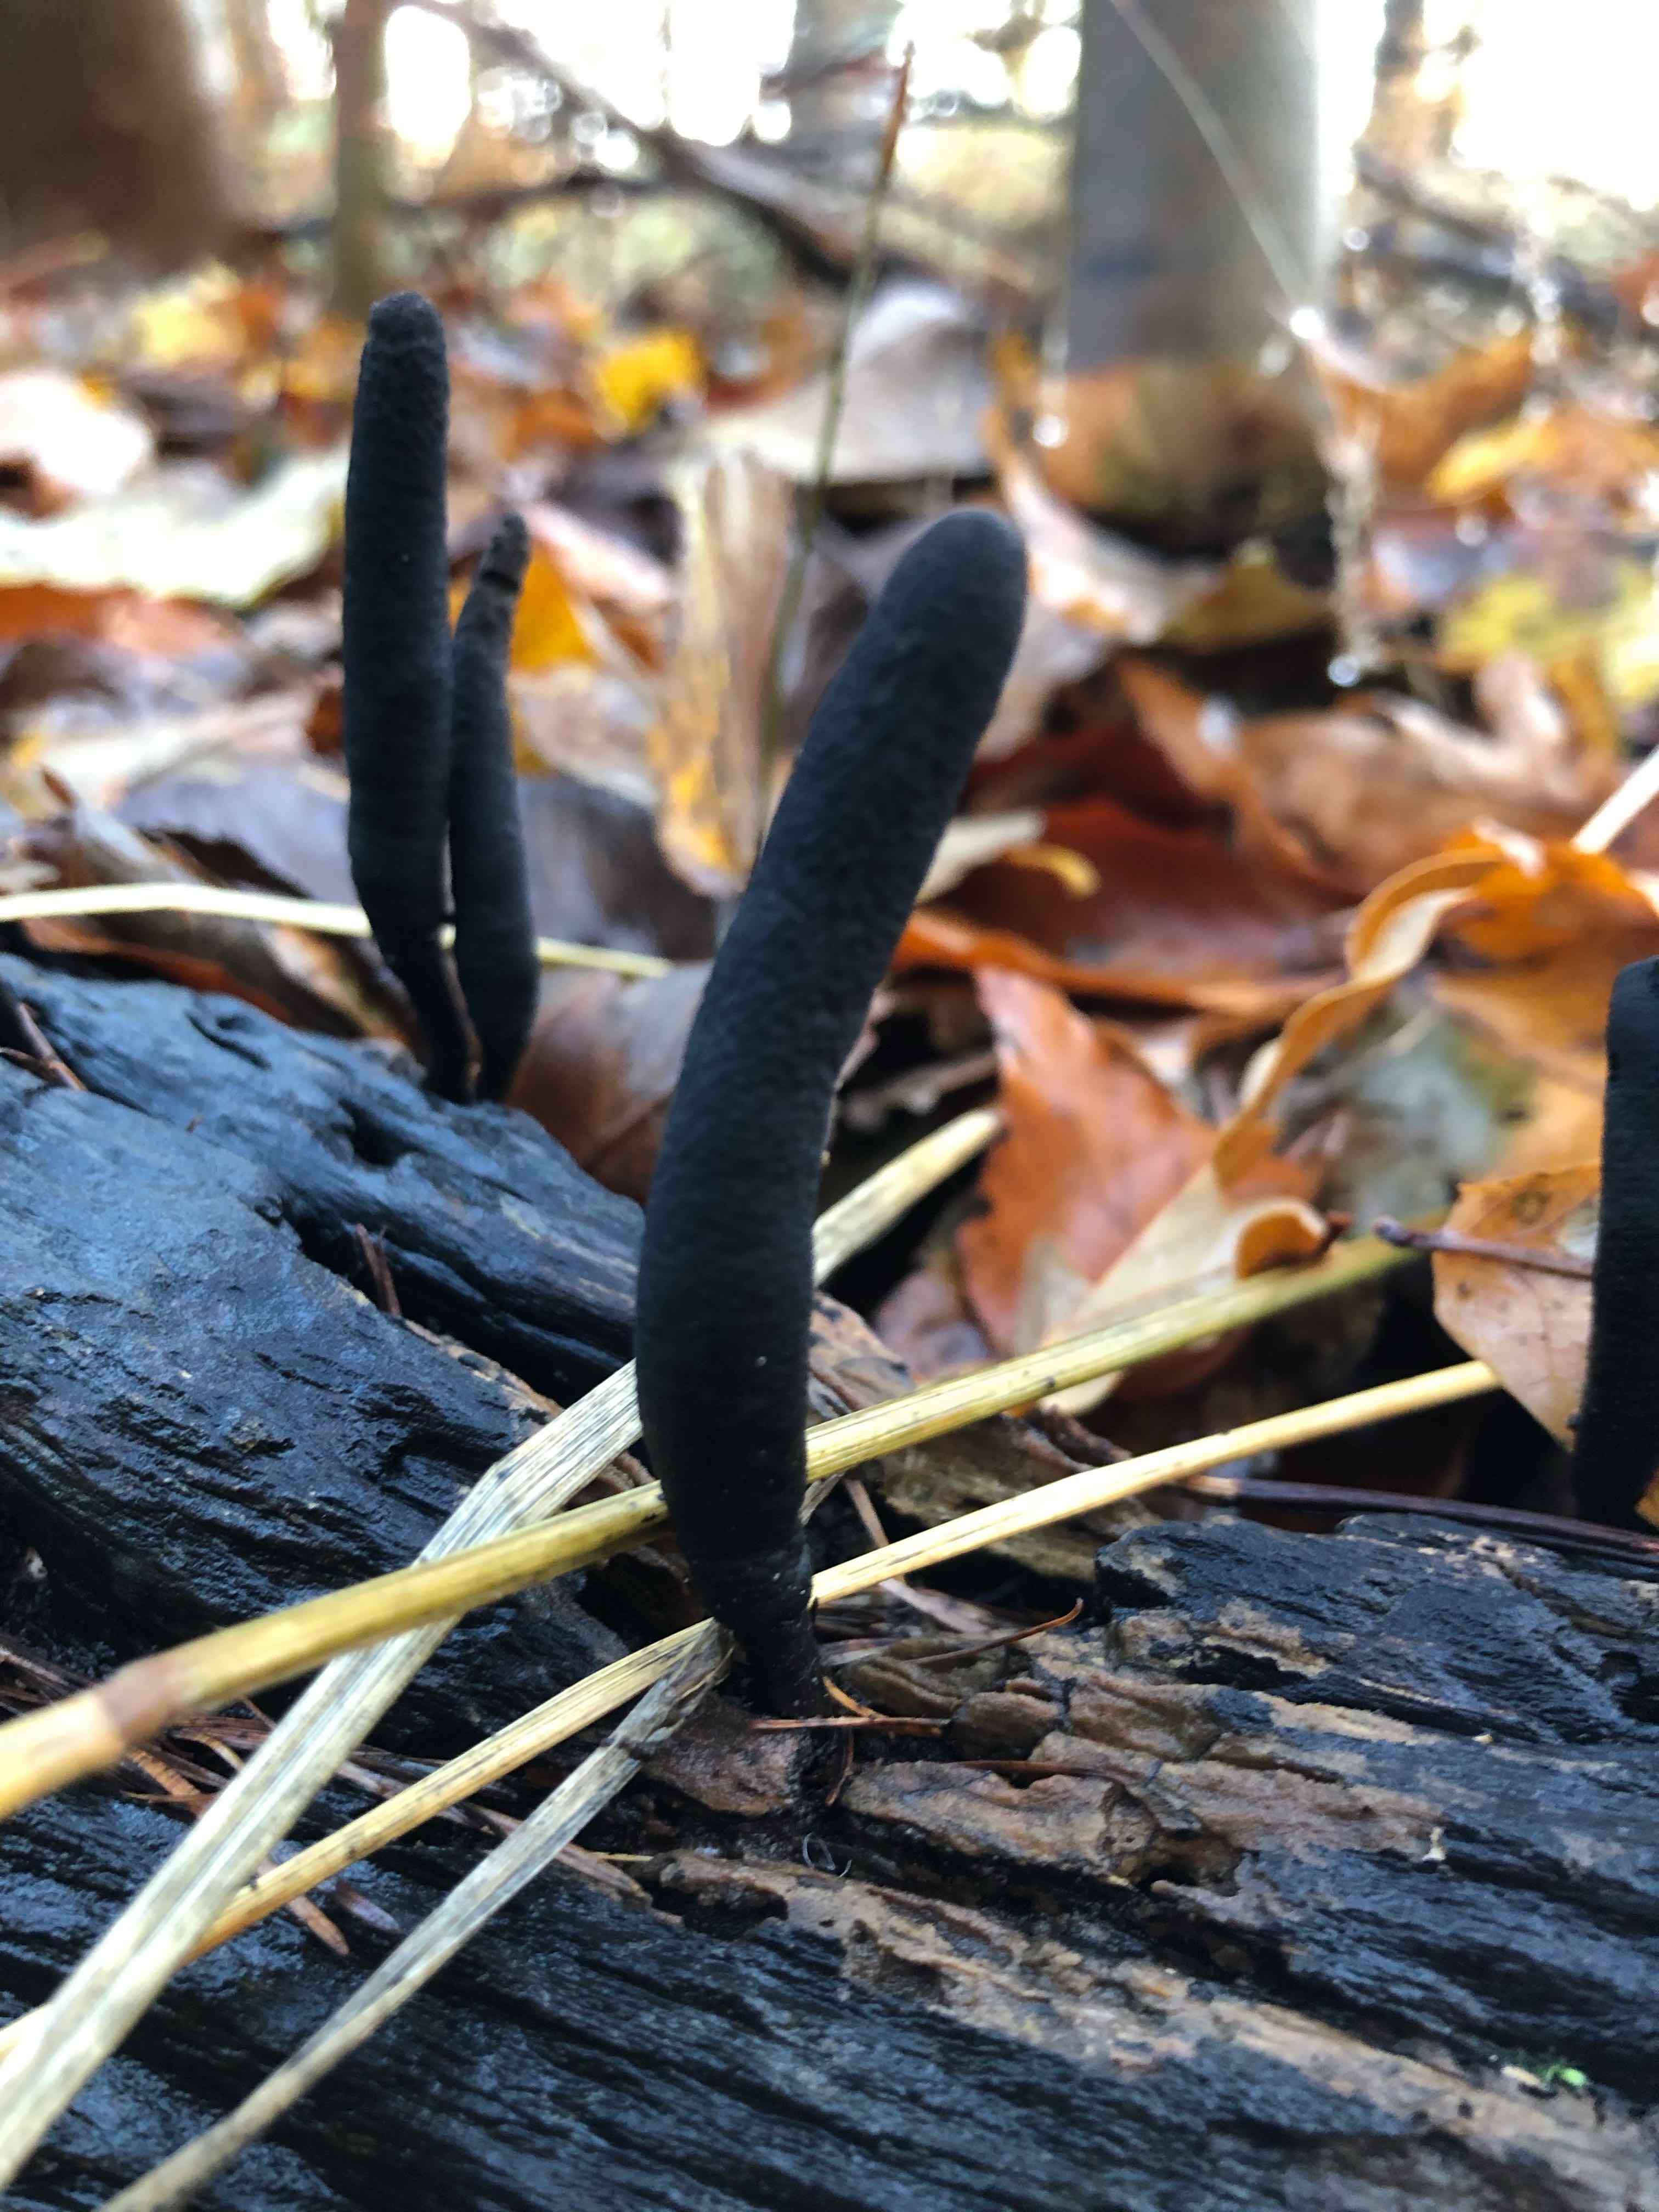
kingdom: Fungi
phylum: Ascomycota
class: Sordariomycetes
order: Xylariales
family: Xylariaceae
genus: Xylaria
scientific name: Xylaria longipes
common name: slank stødsvamp
